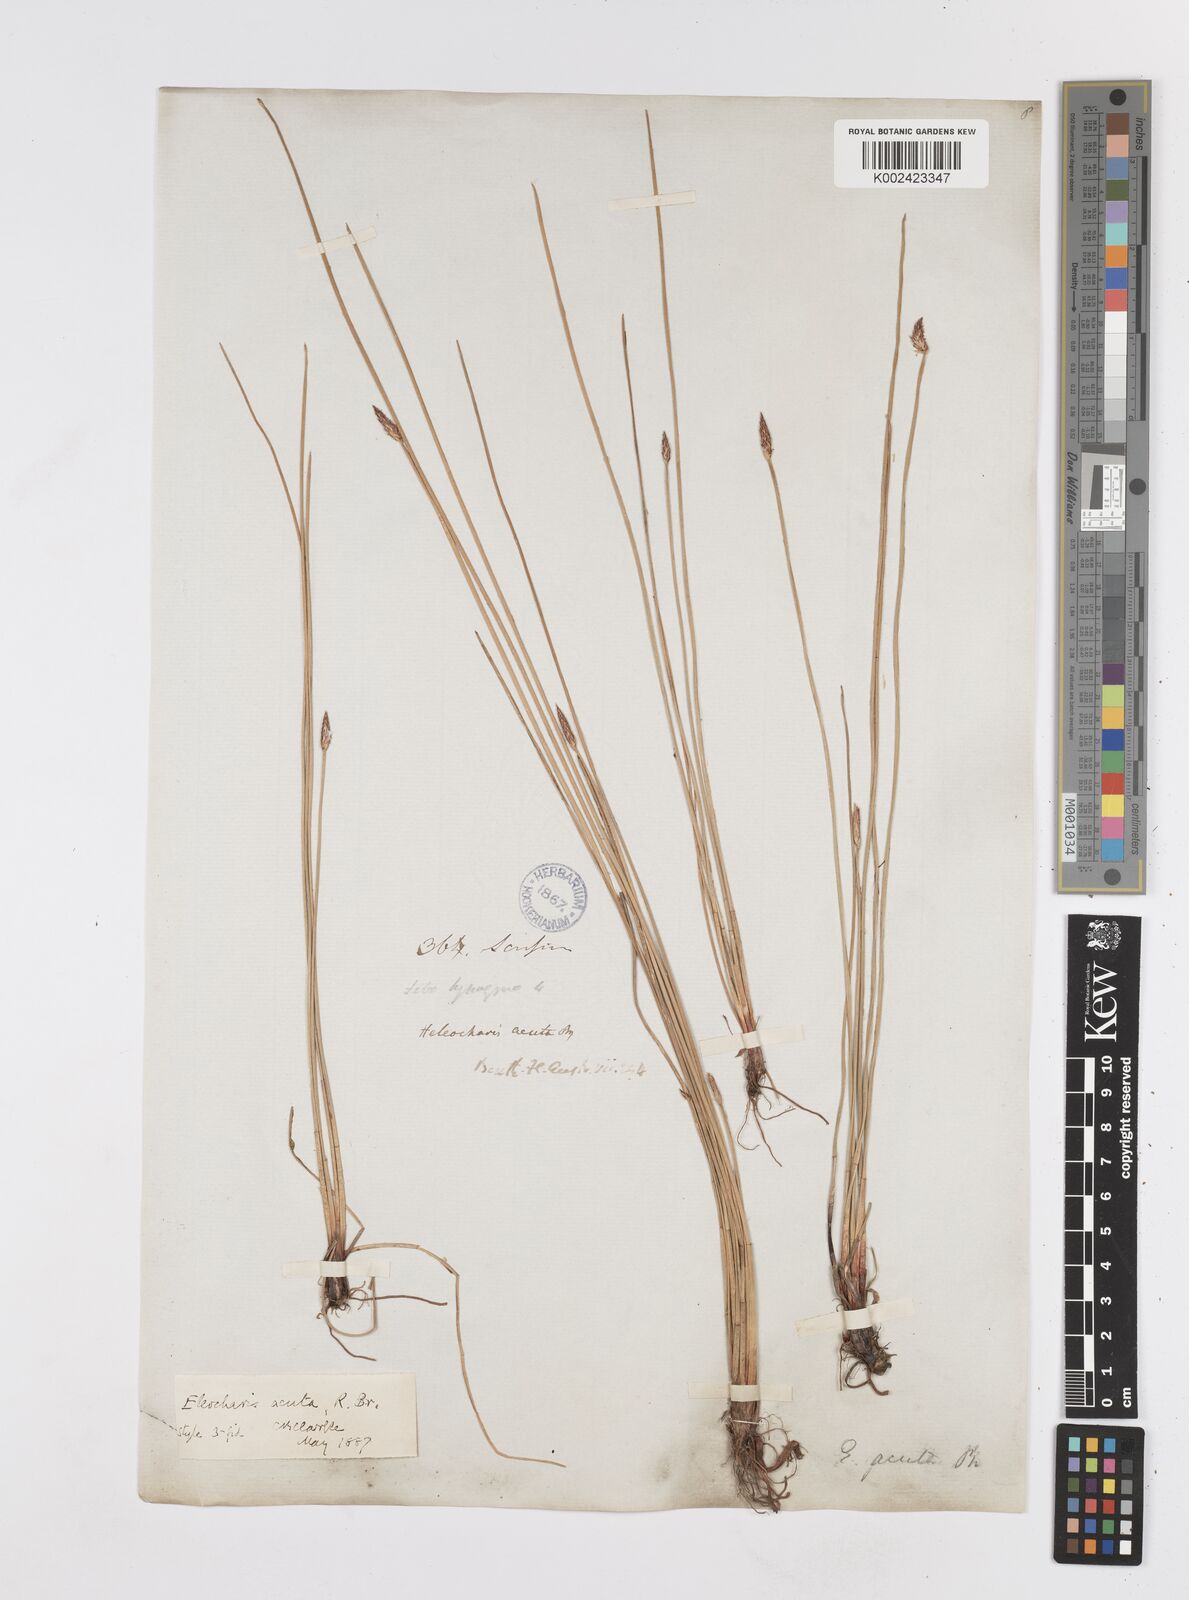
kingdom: Plantae
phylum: Tracheophyta
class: Liliopsida
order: Poales
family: Cyperaceae
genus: Eleocharis
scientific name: Eleocharis acuta
